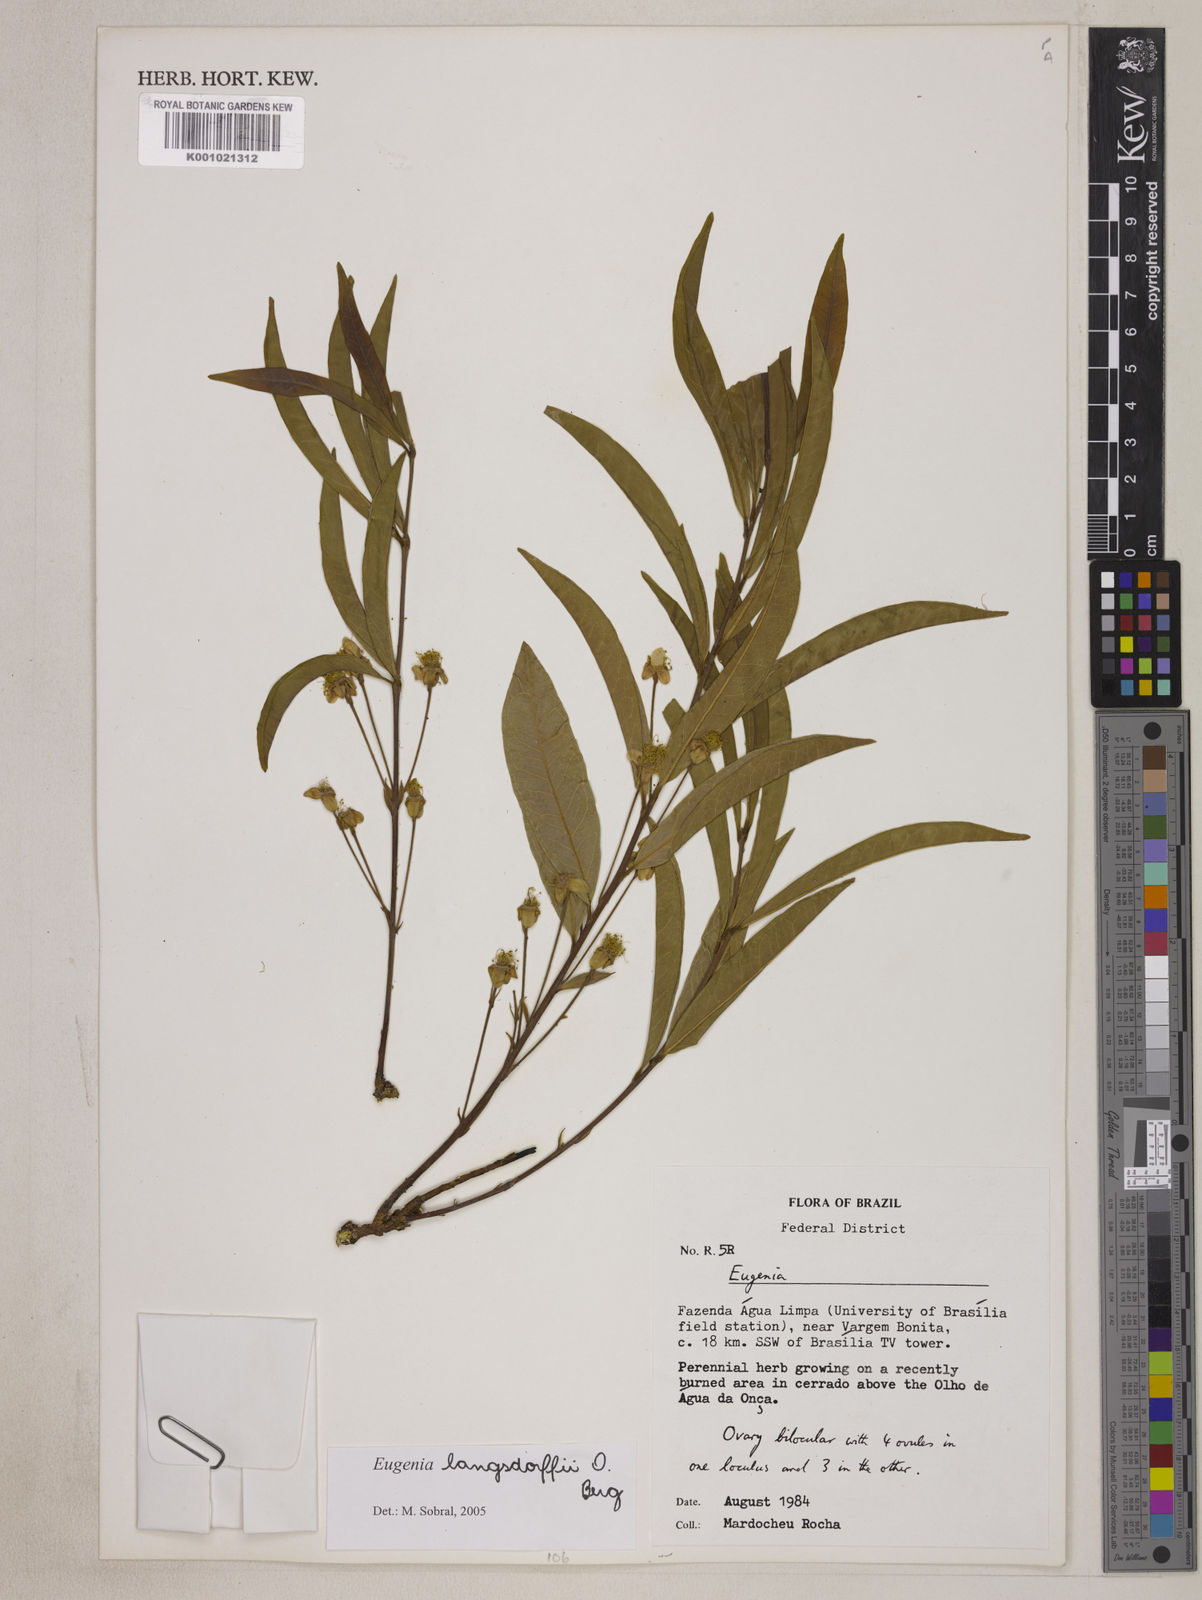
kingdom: Plantae
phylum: Tracheophyta
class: Magnoliopsida
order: Myrtales
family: Myrtaceae
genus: Eugenia
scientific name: Eugenia langsdorffii
